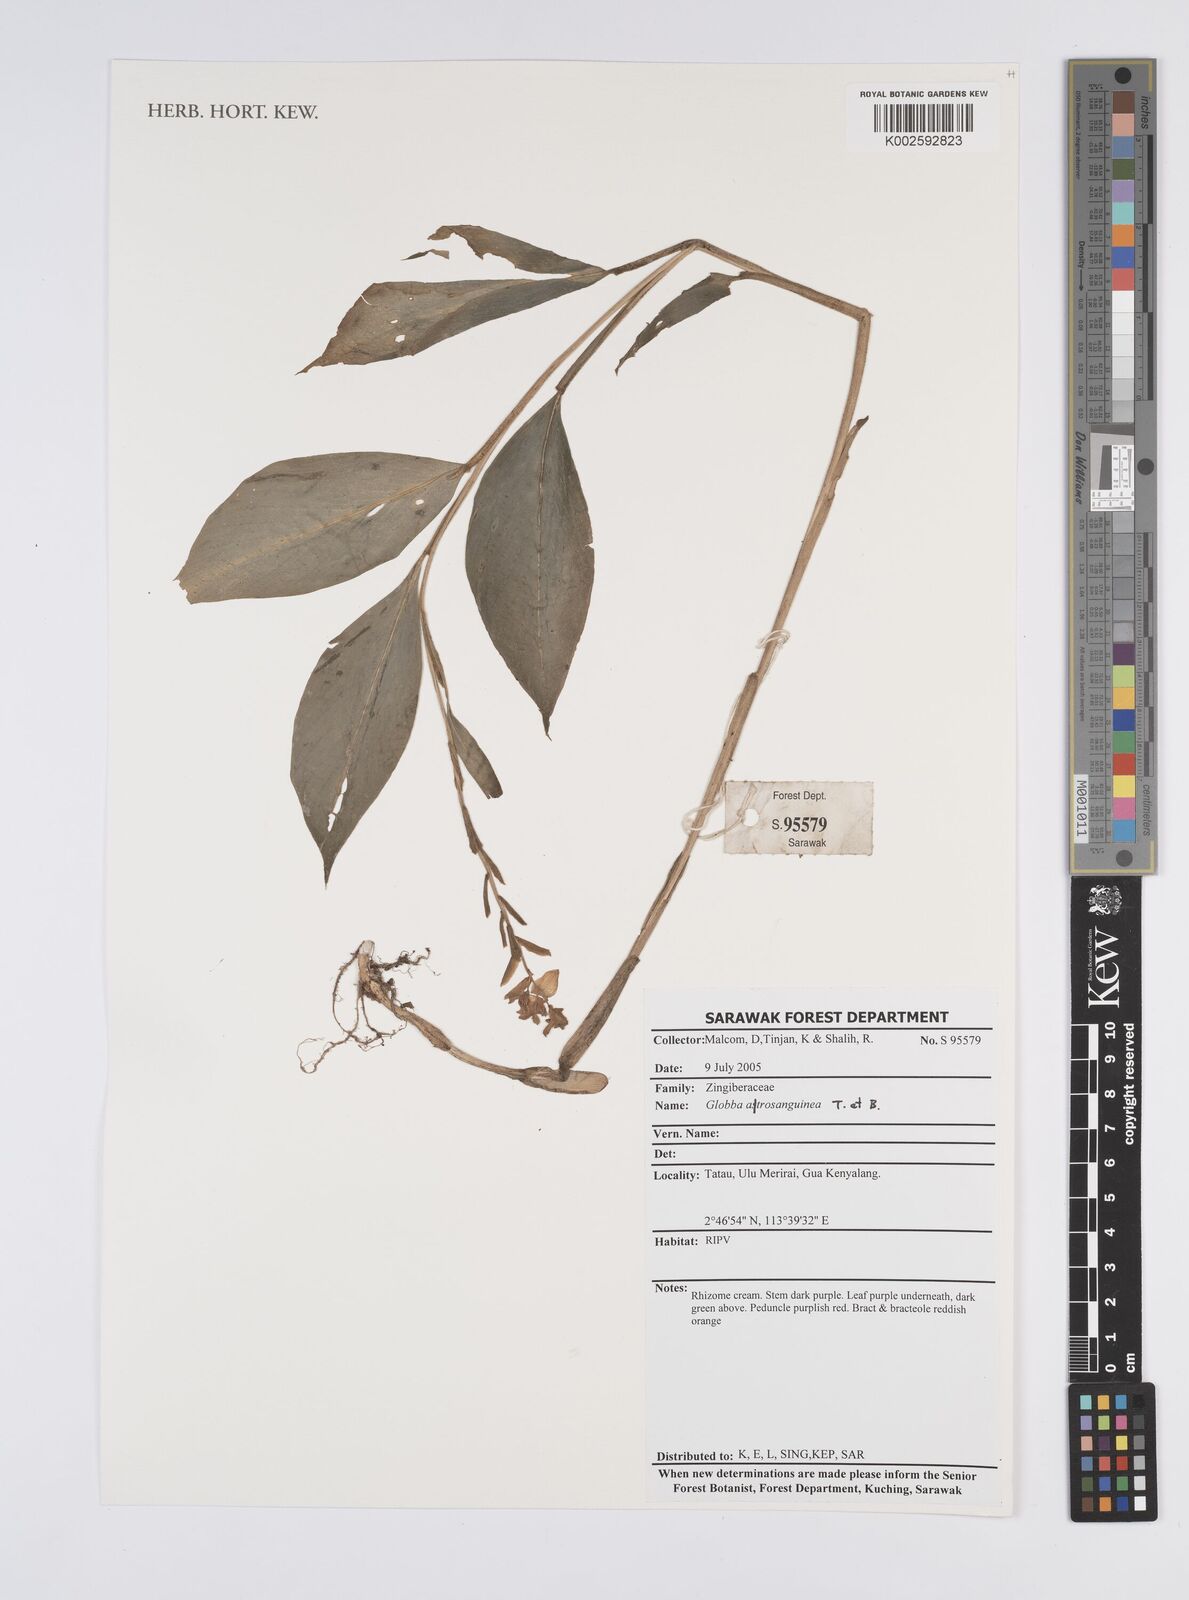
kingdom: Plantae
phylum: Tracheophyta
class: Liliopsida
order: Zingiberales
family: Zingiberaceae
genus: Globba
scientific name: Globba atrosanguinea
